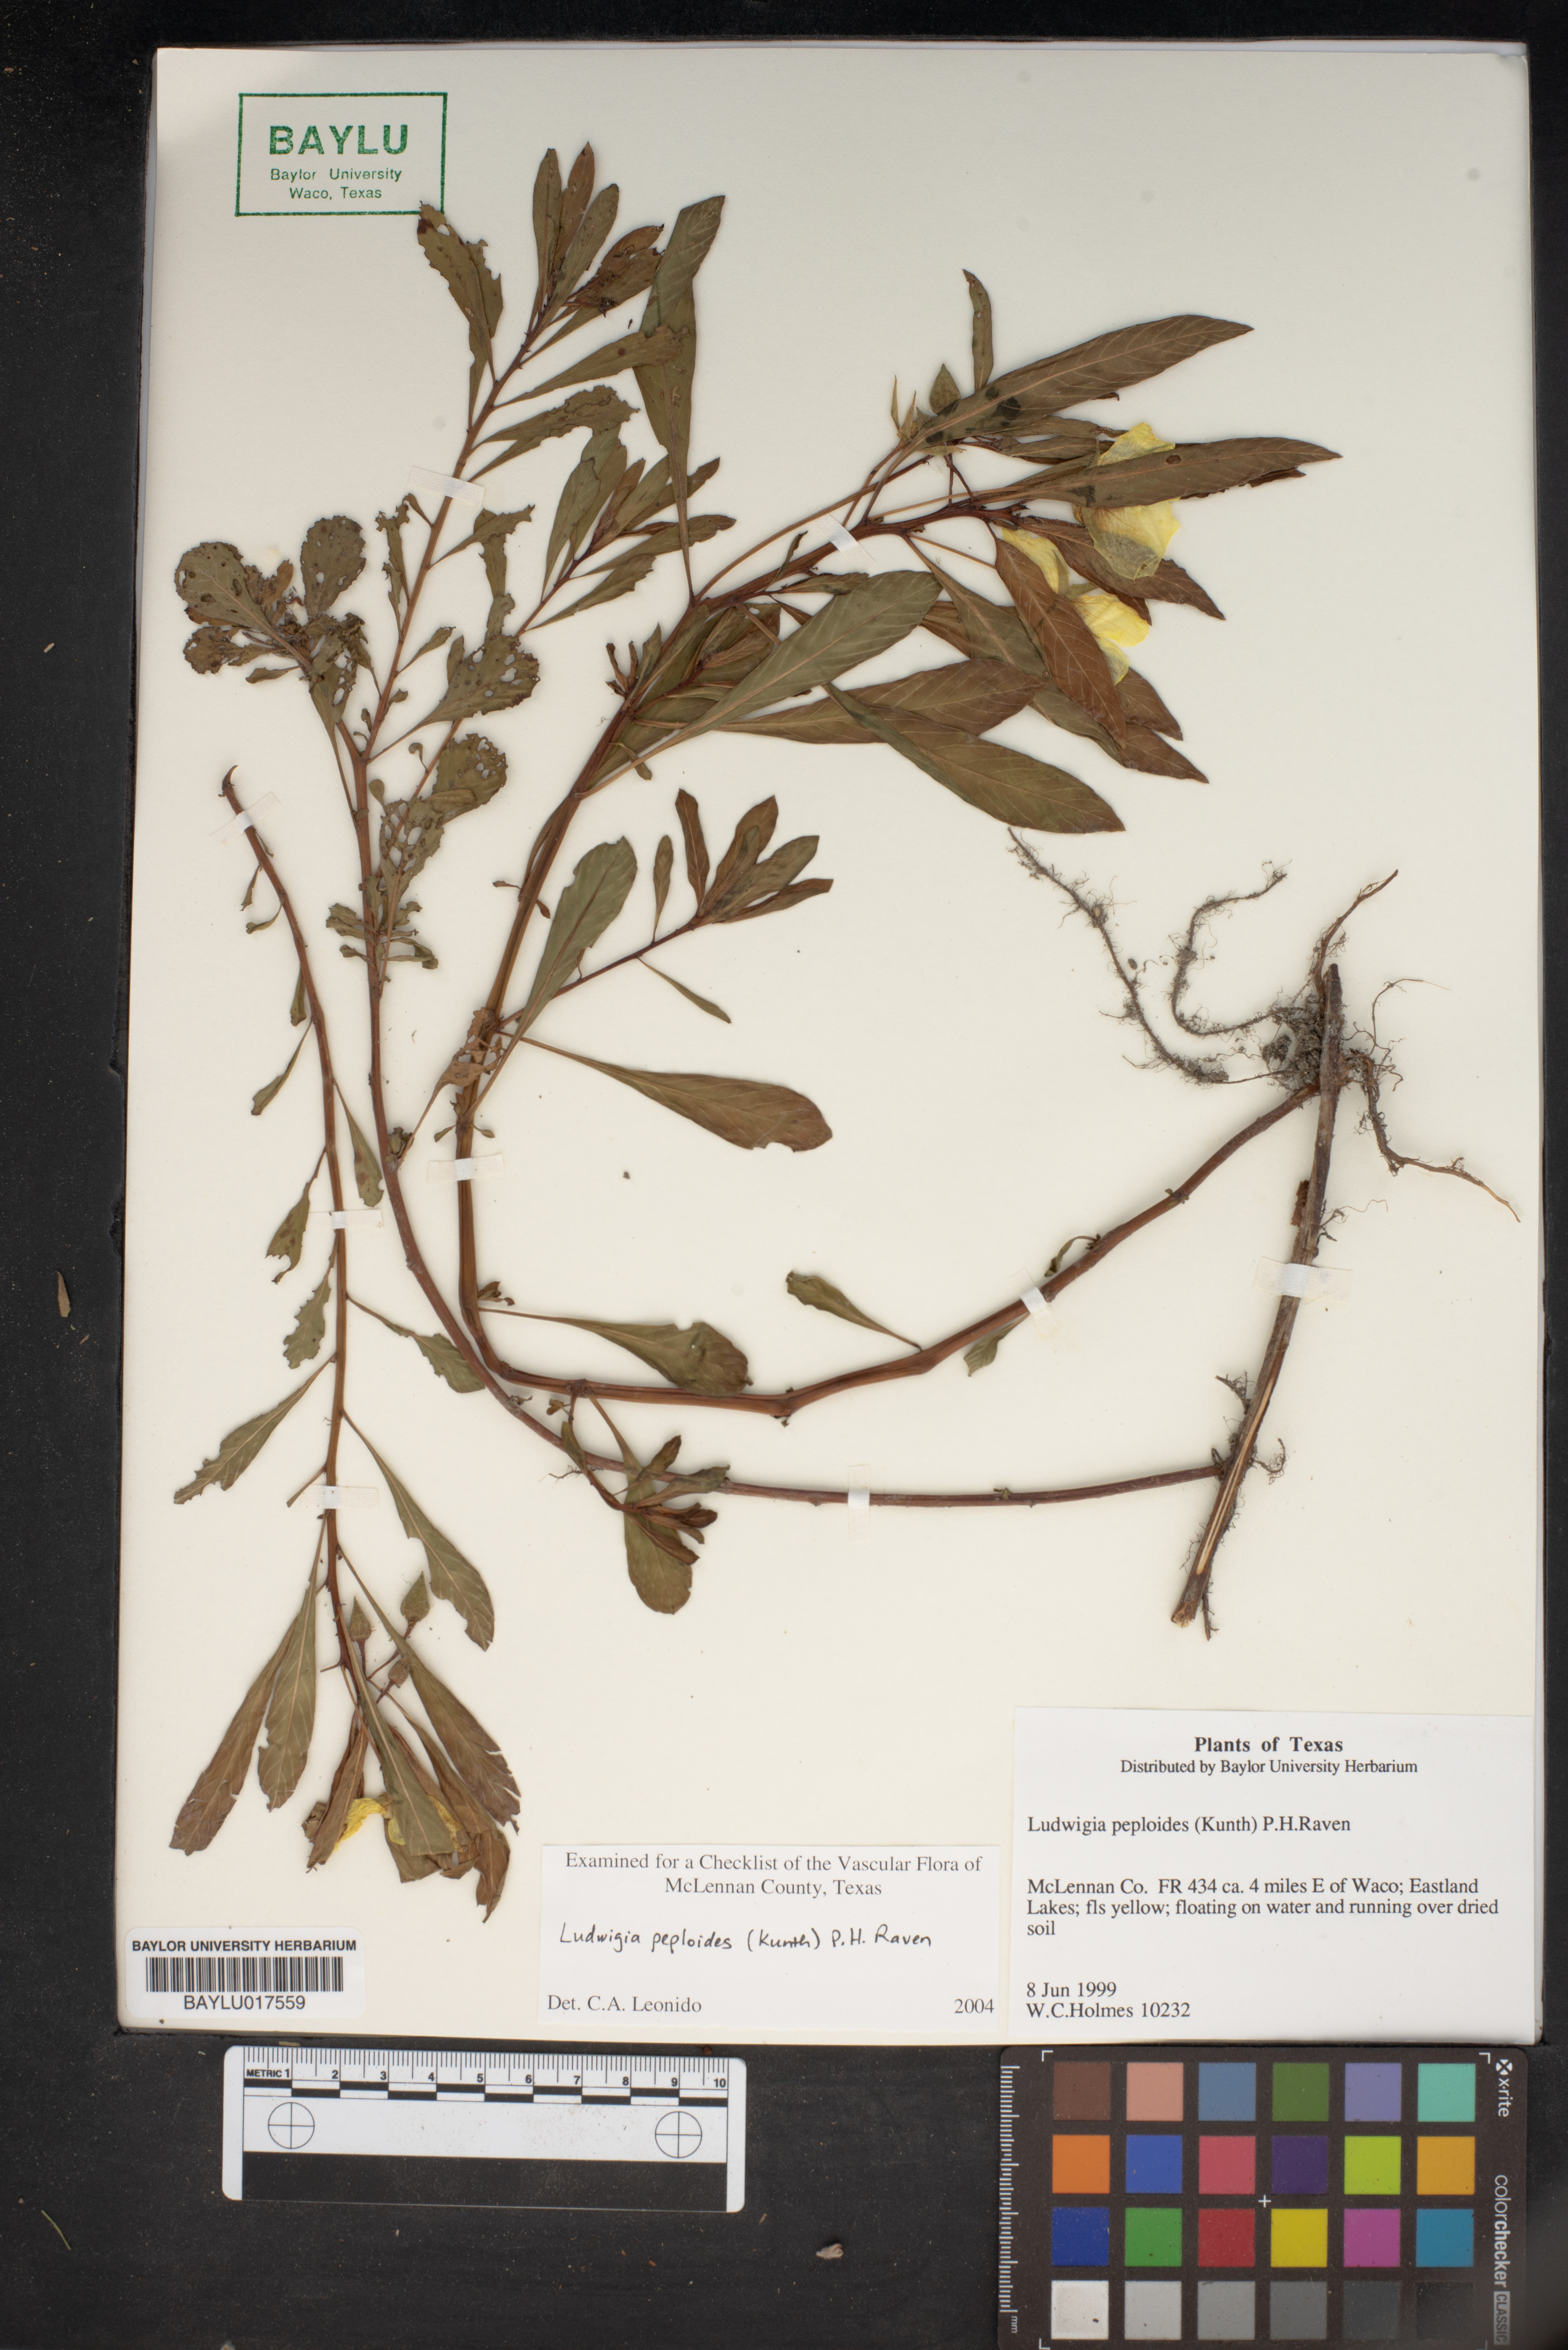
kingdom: Plantae
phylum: Tracheophyta
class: Magnoliopsida
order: Myrtales
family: Onagraceae
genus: Ludwigia
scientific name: Ludwigia peploides
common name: Floating primrose-willow
